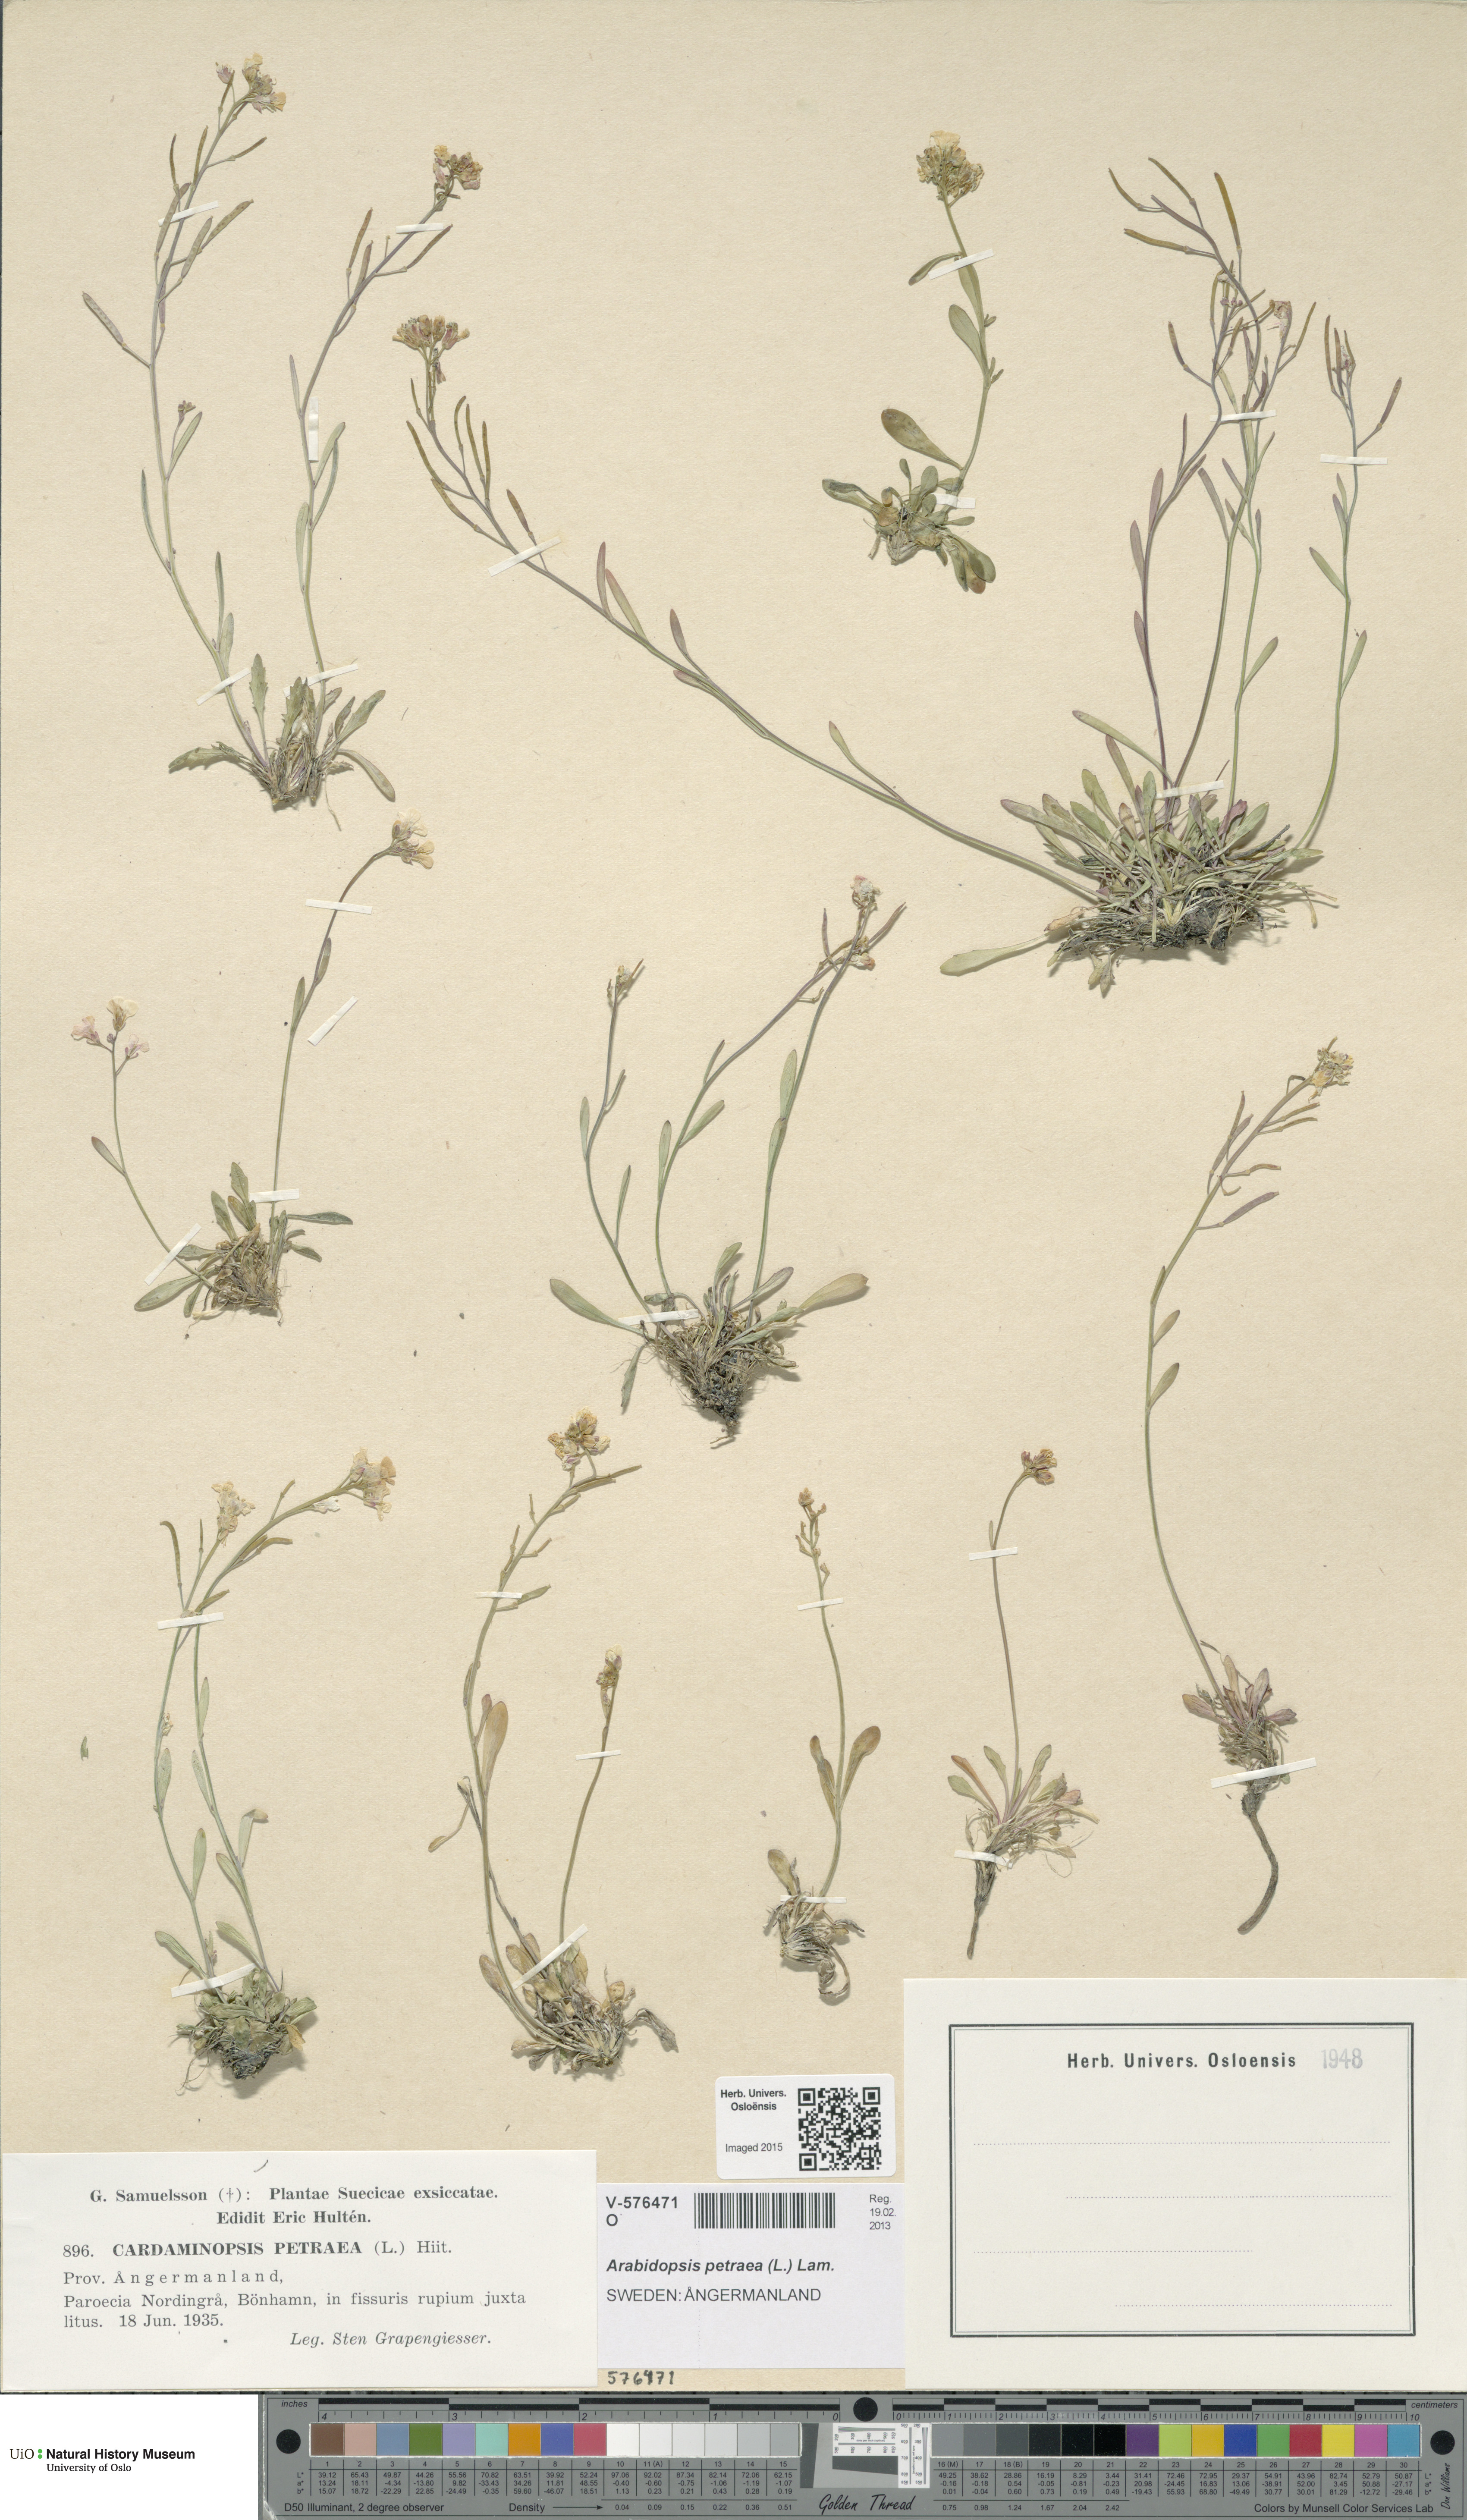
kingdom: Plantae
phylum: Tracheophyta
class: Magnoliopsida
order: Brassicales
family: Brassicaceae
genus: Arabidopsis
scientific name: Arabidopsis petraea
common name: Northern rock-cress
